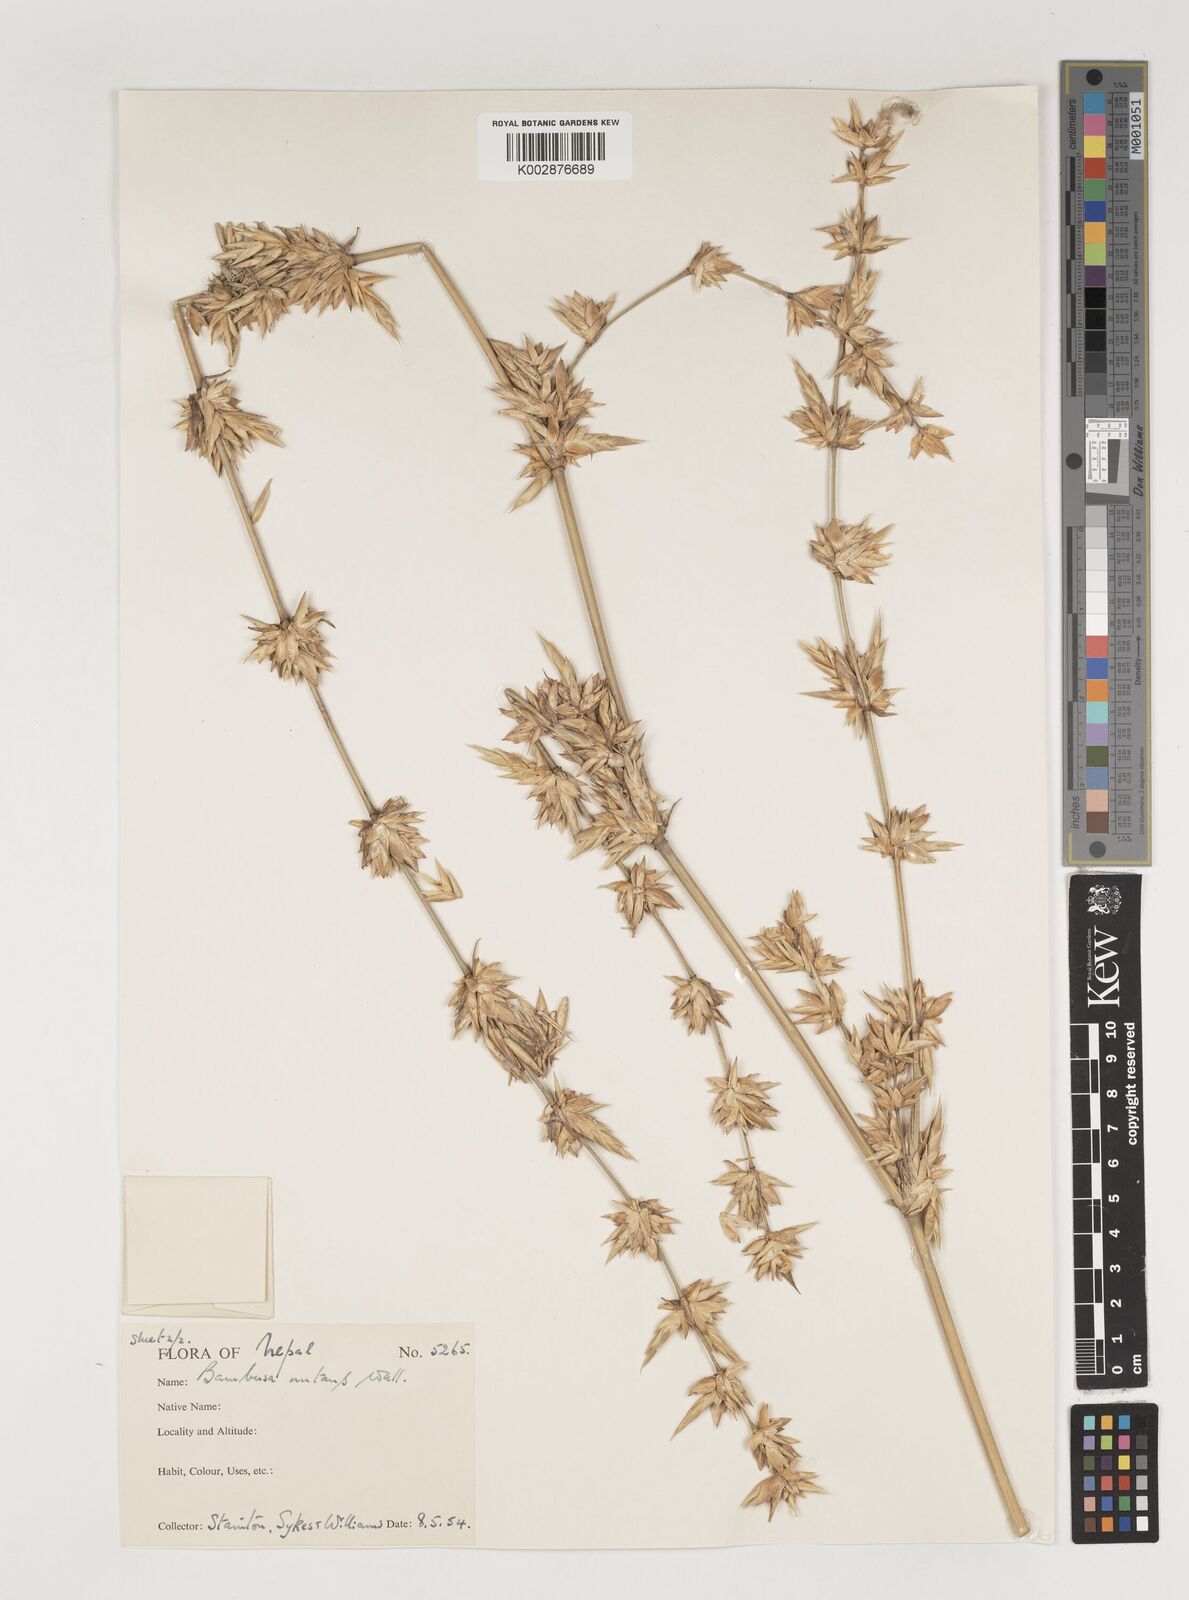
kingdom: Plantae
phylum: Tracheophyta
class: Liliopsida
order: Poales
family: Poaceae
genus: Bambusa
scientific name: Bambusa
